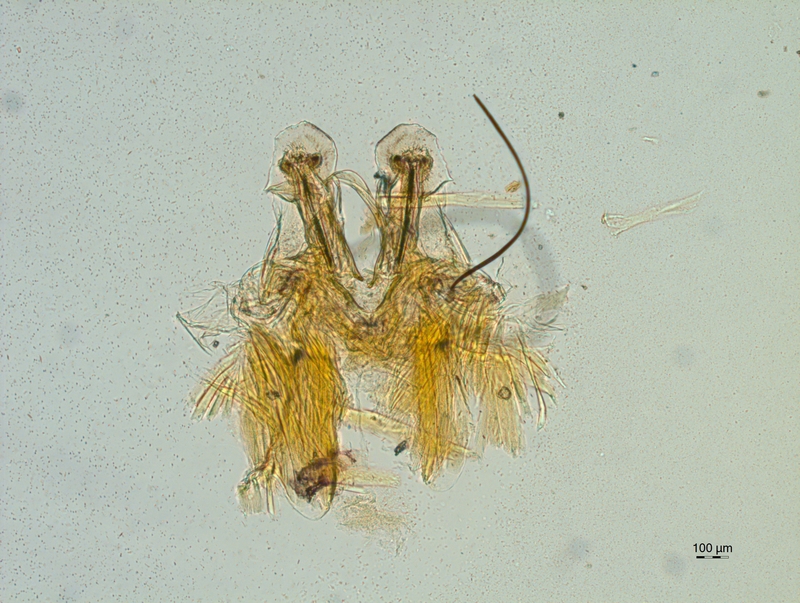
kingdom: Animalia
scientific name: Animalia
